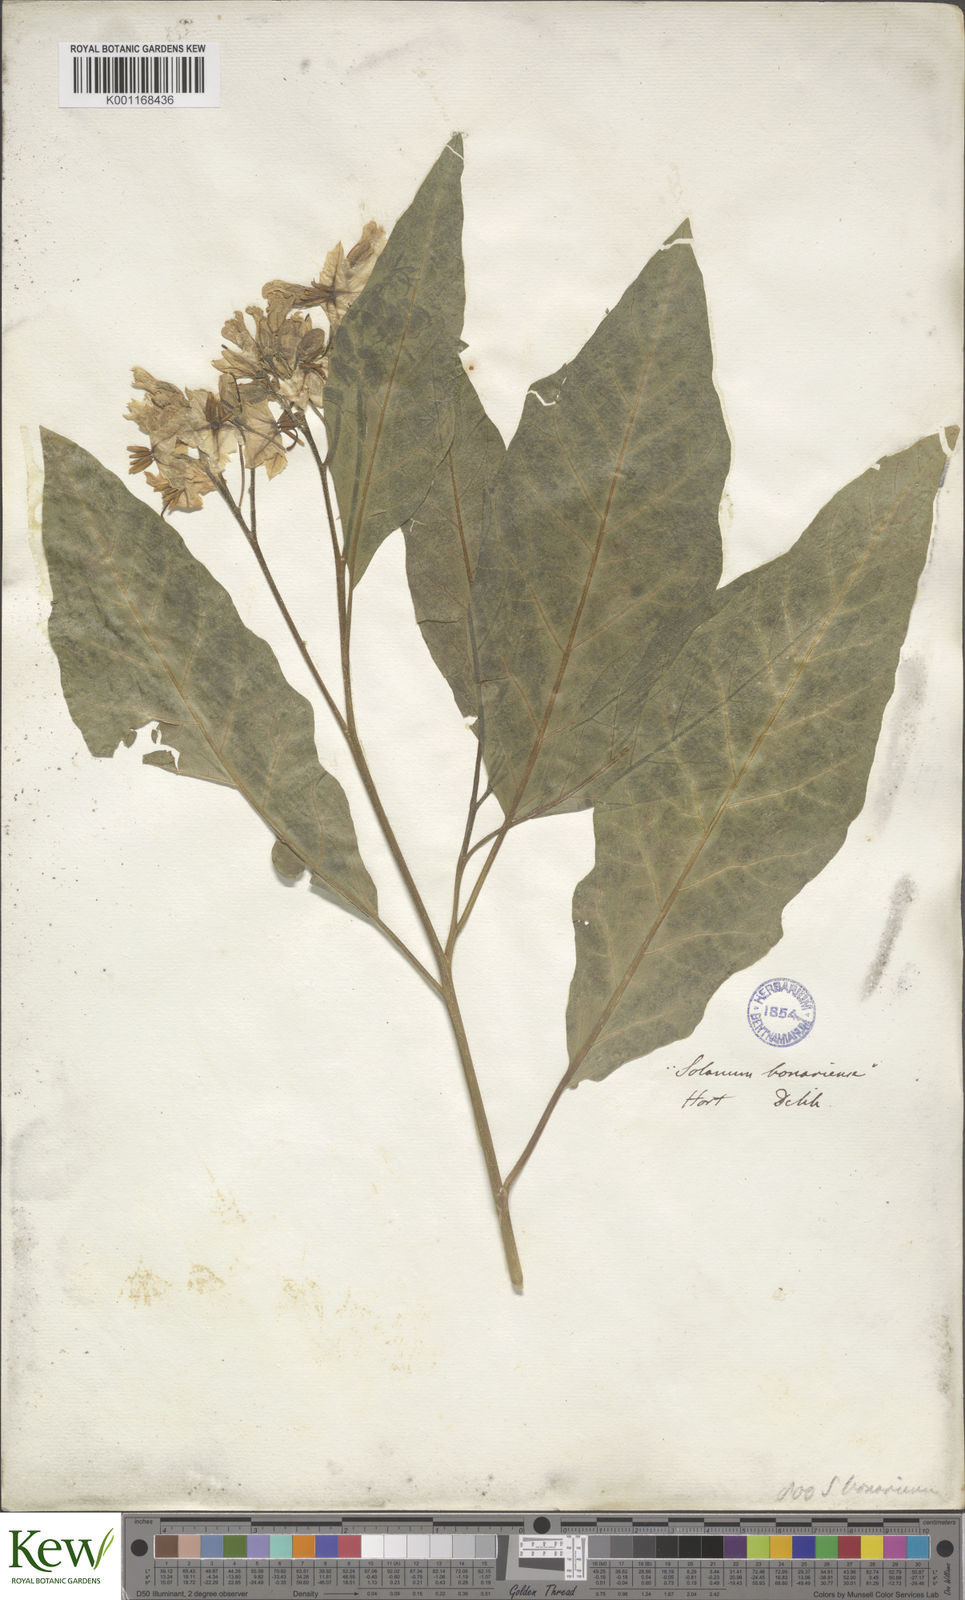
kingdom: Plantae
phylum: Tracheophyta
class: Magnoliopsida
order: Solanales
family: Solanaceae
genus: Solanum
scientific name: Solanum bonariense
